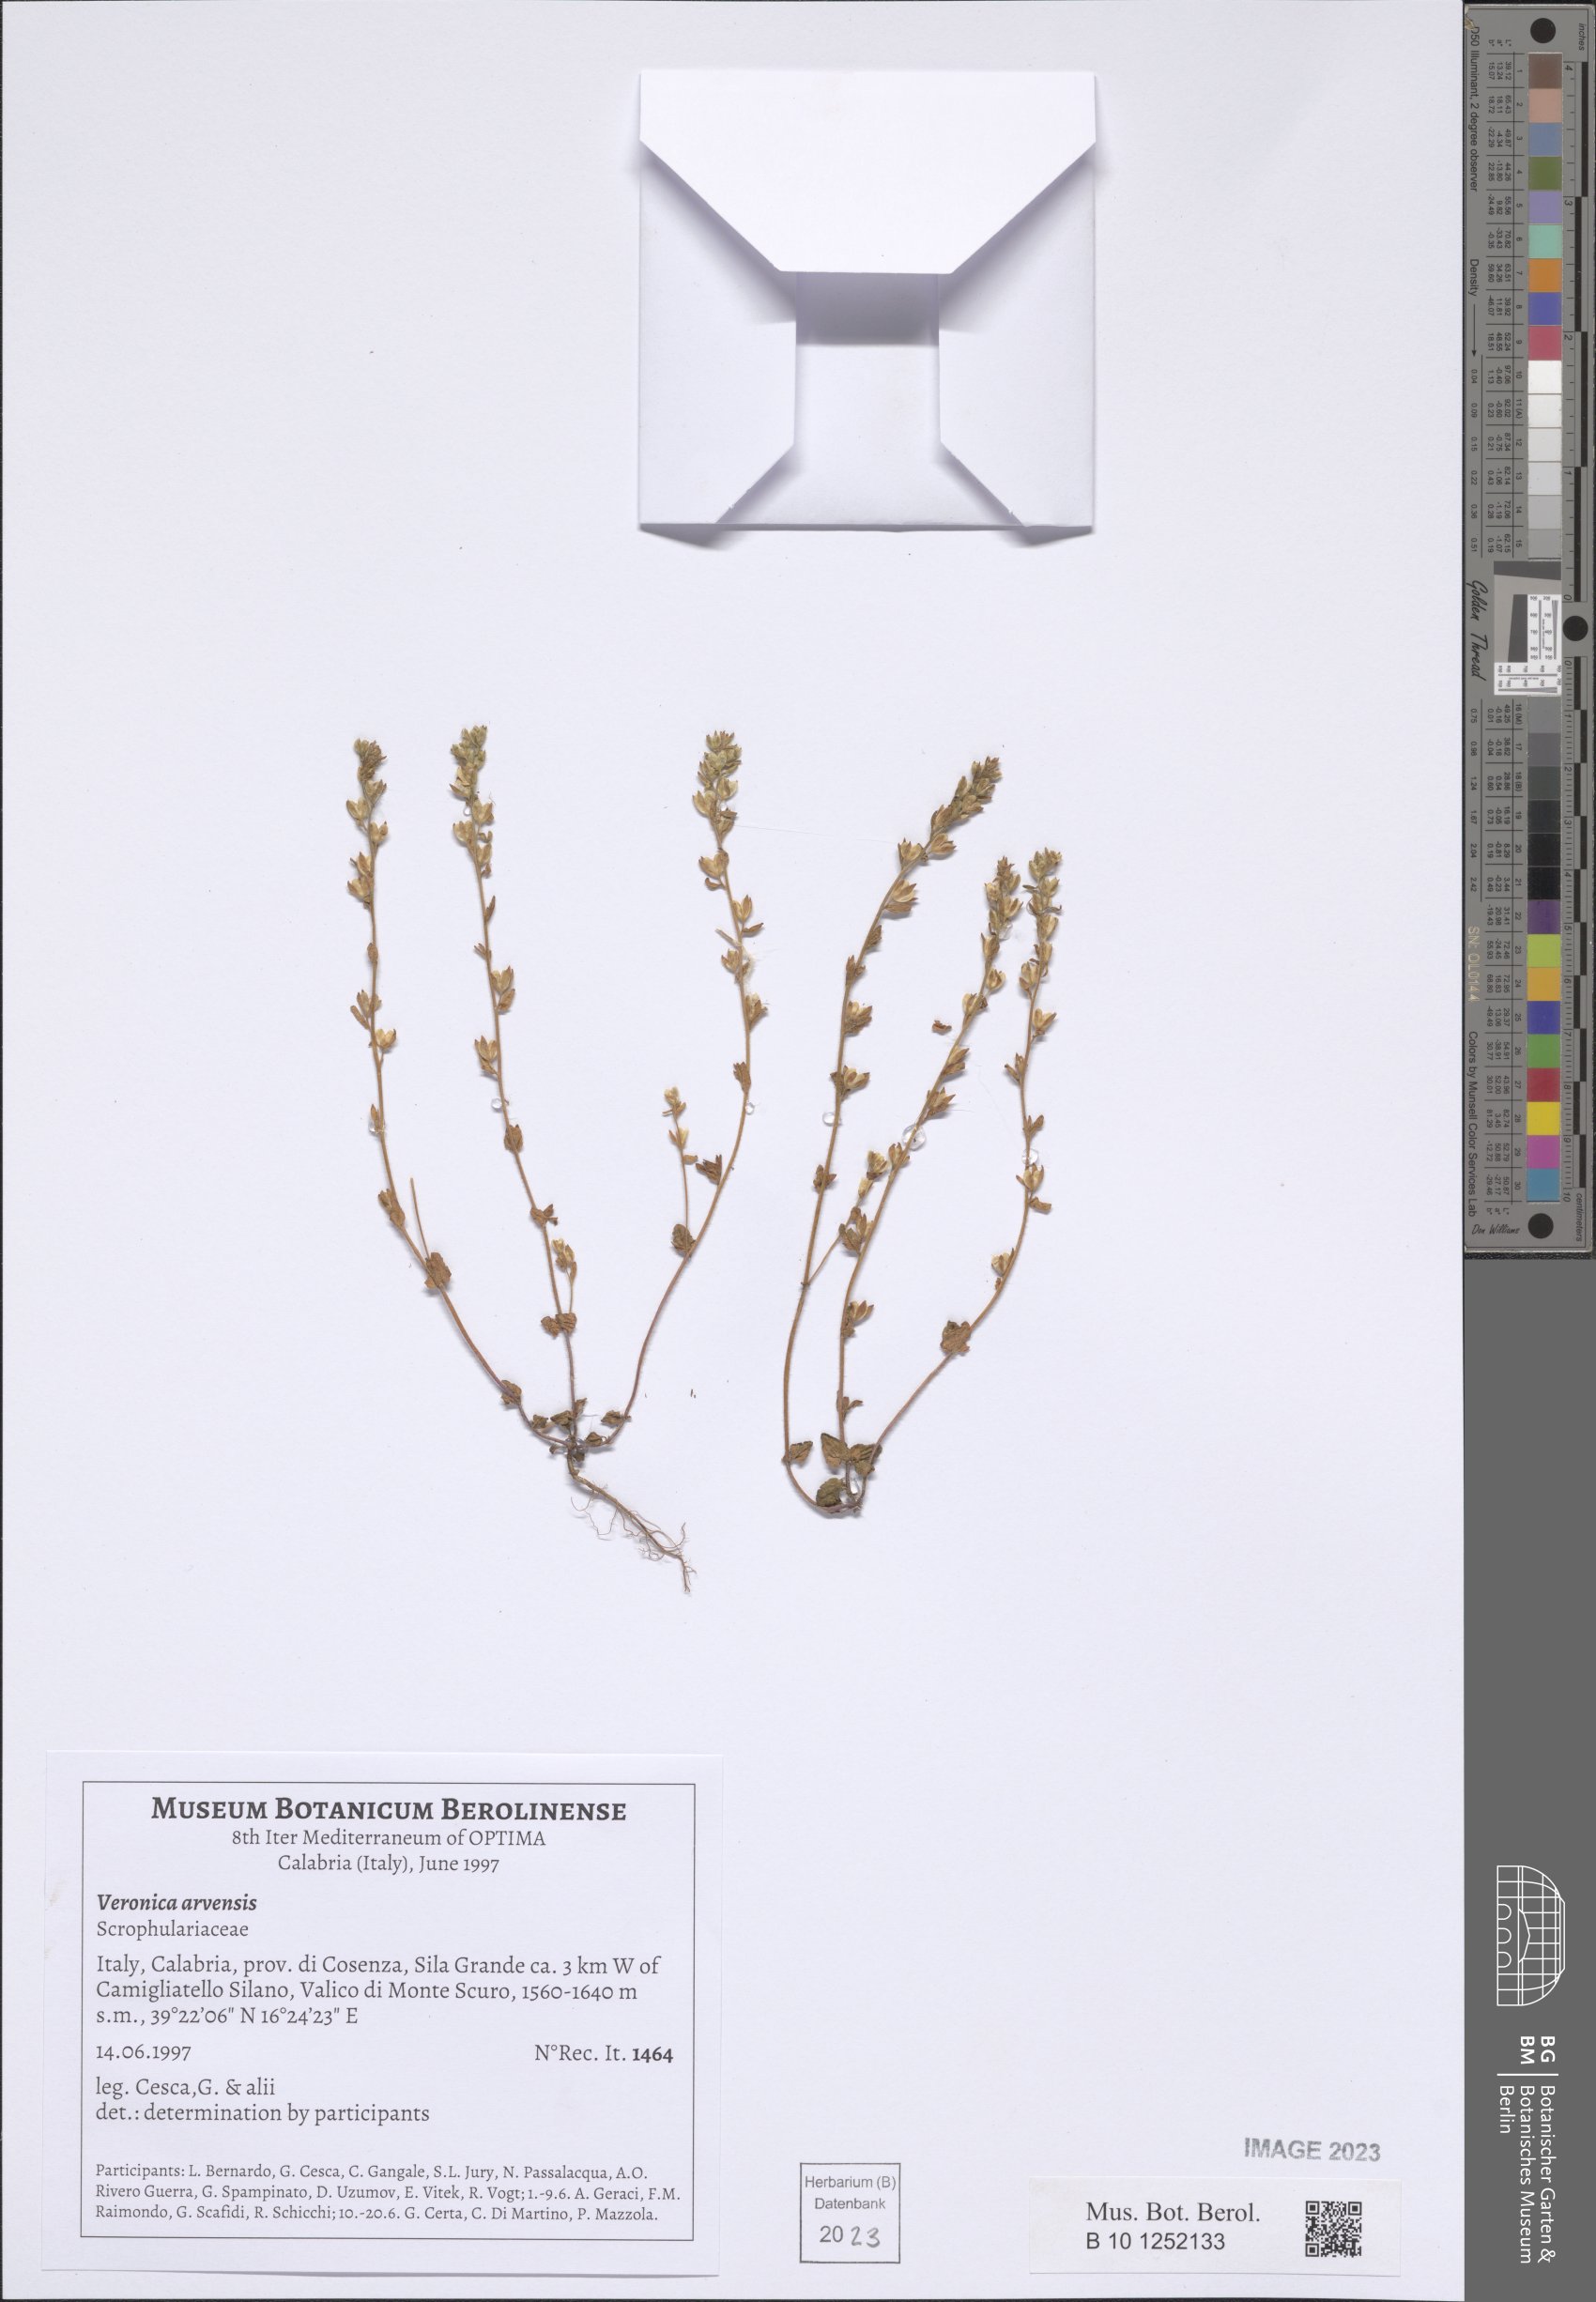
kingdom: Plantae
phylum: Tracheophyta
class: Magnoliopsida
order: Lamiales
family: Plantaginaceae
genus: Veronica
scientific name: Veronica arvensis
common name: Corn speedwell
